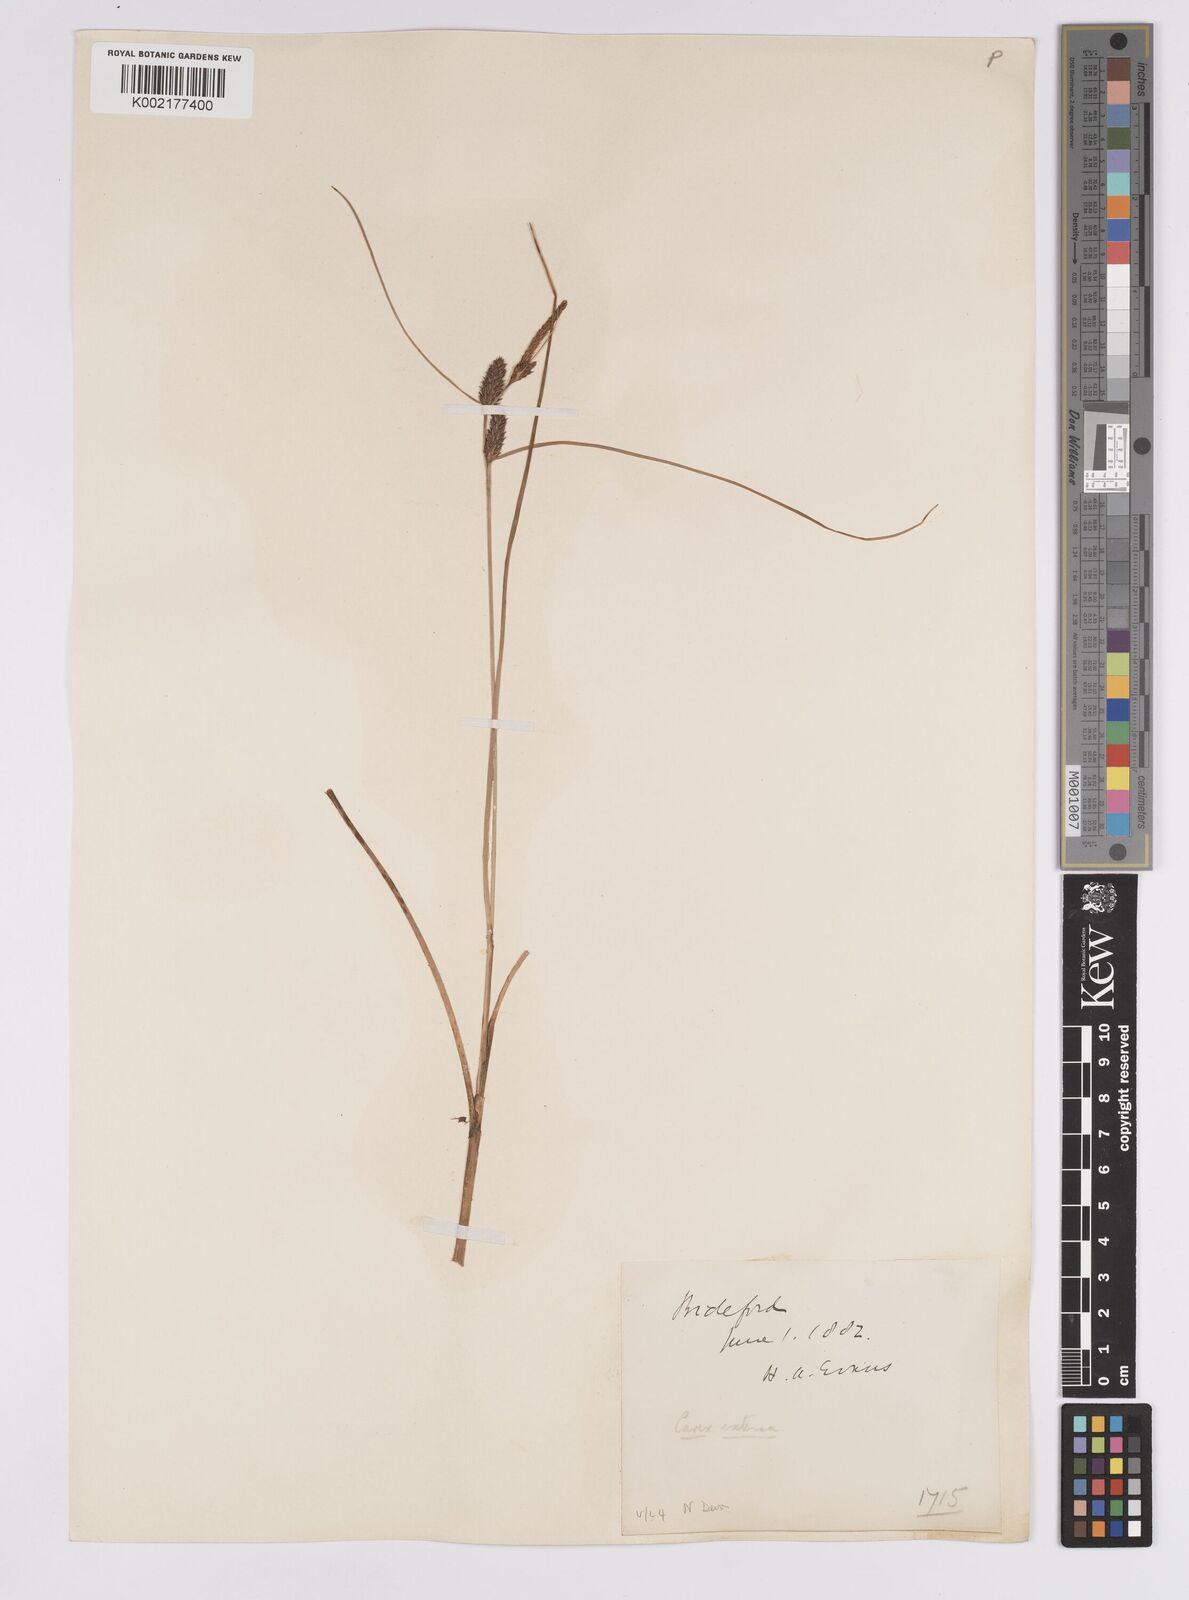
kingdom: Plantae
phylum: Tracheophyta
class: Liliopsida
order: Poales
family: Cyperaceae
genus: Carex
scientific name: Carex extensa
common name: Long-bracted sedge
